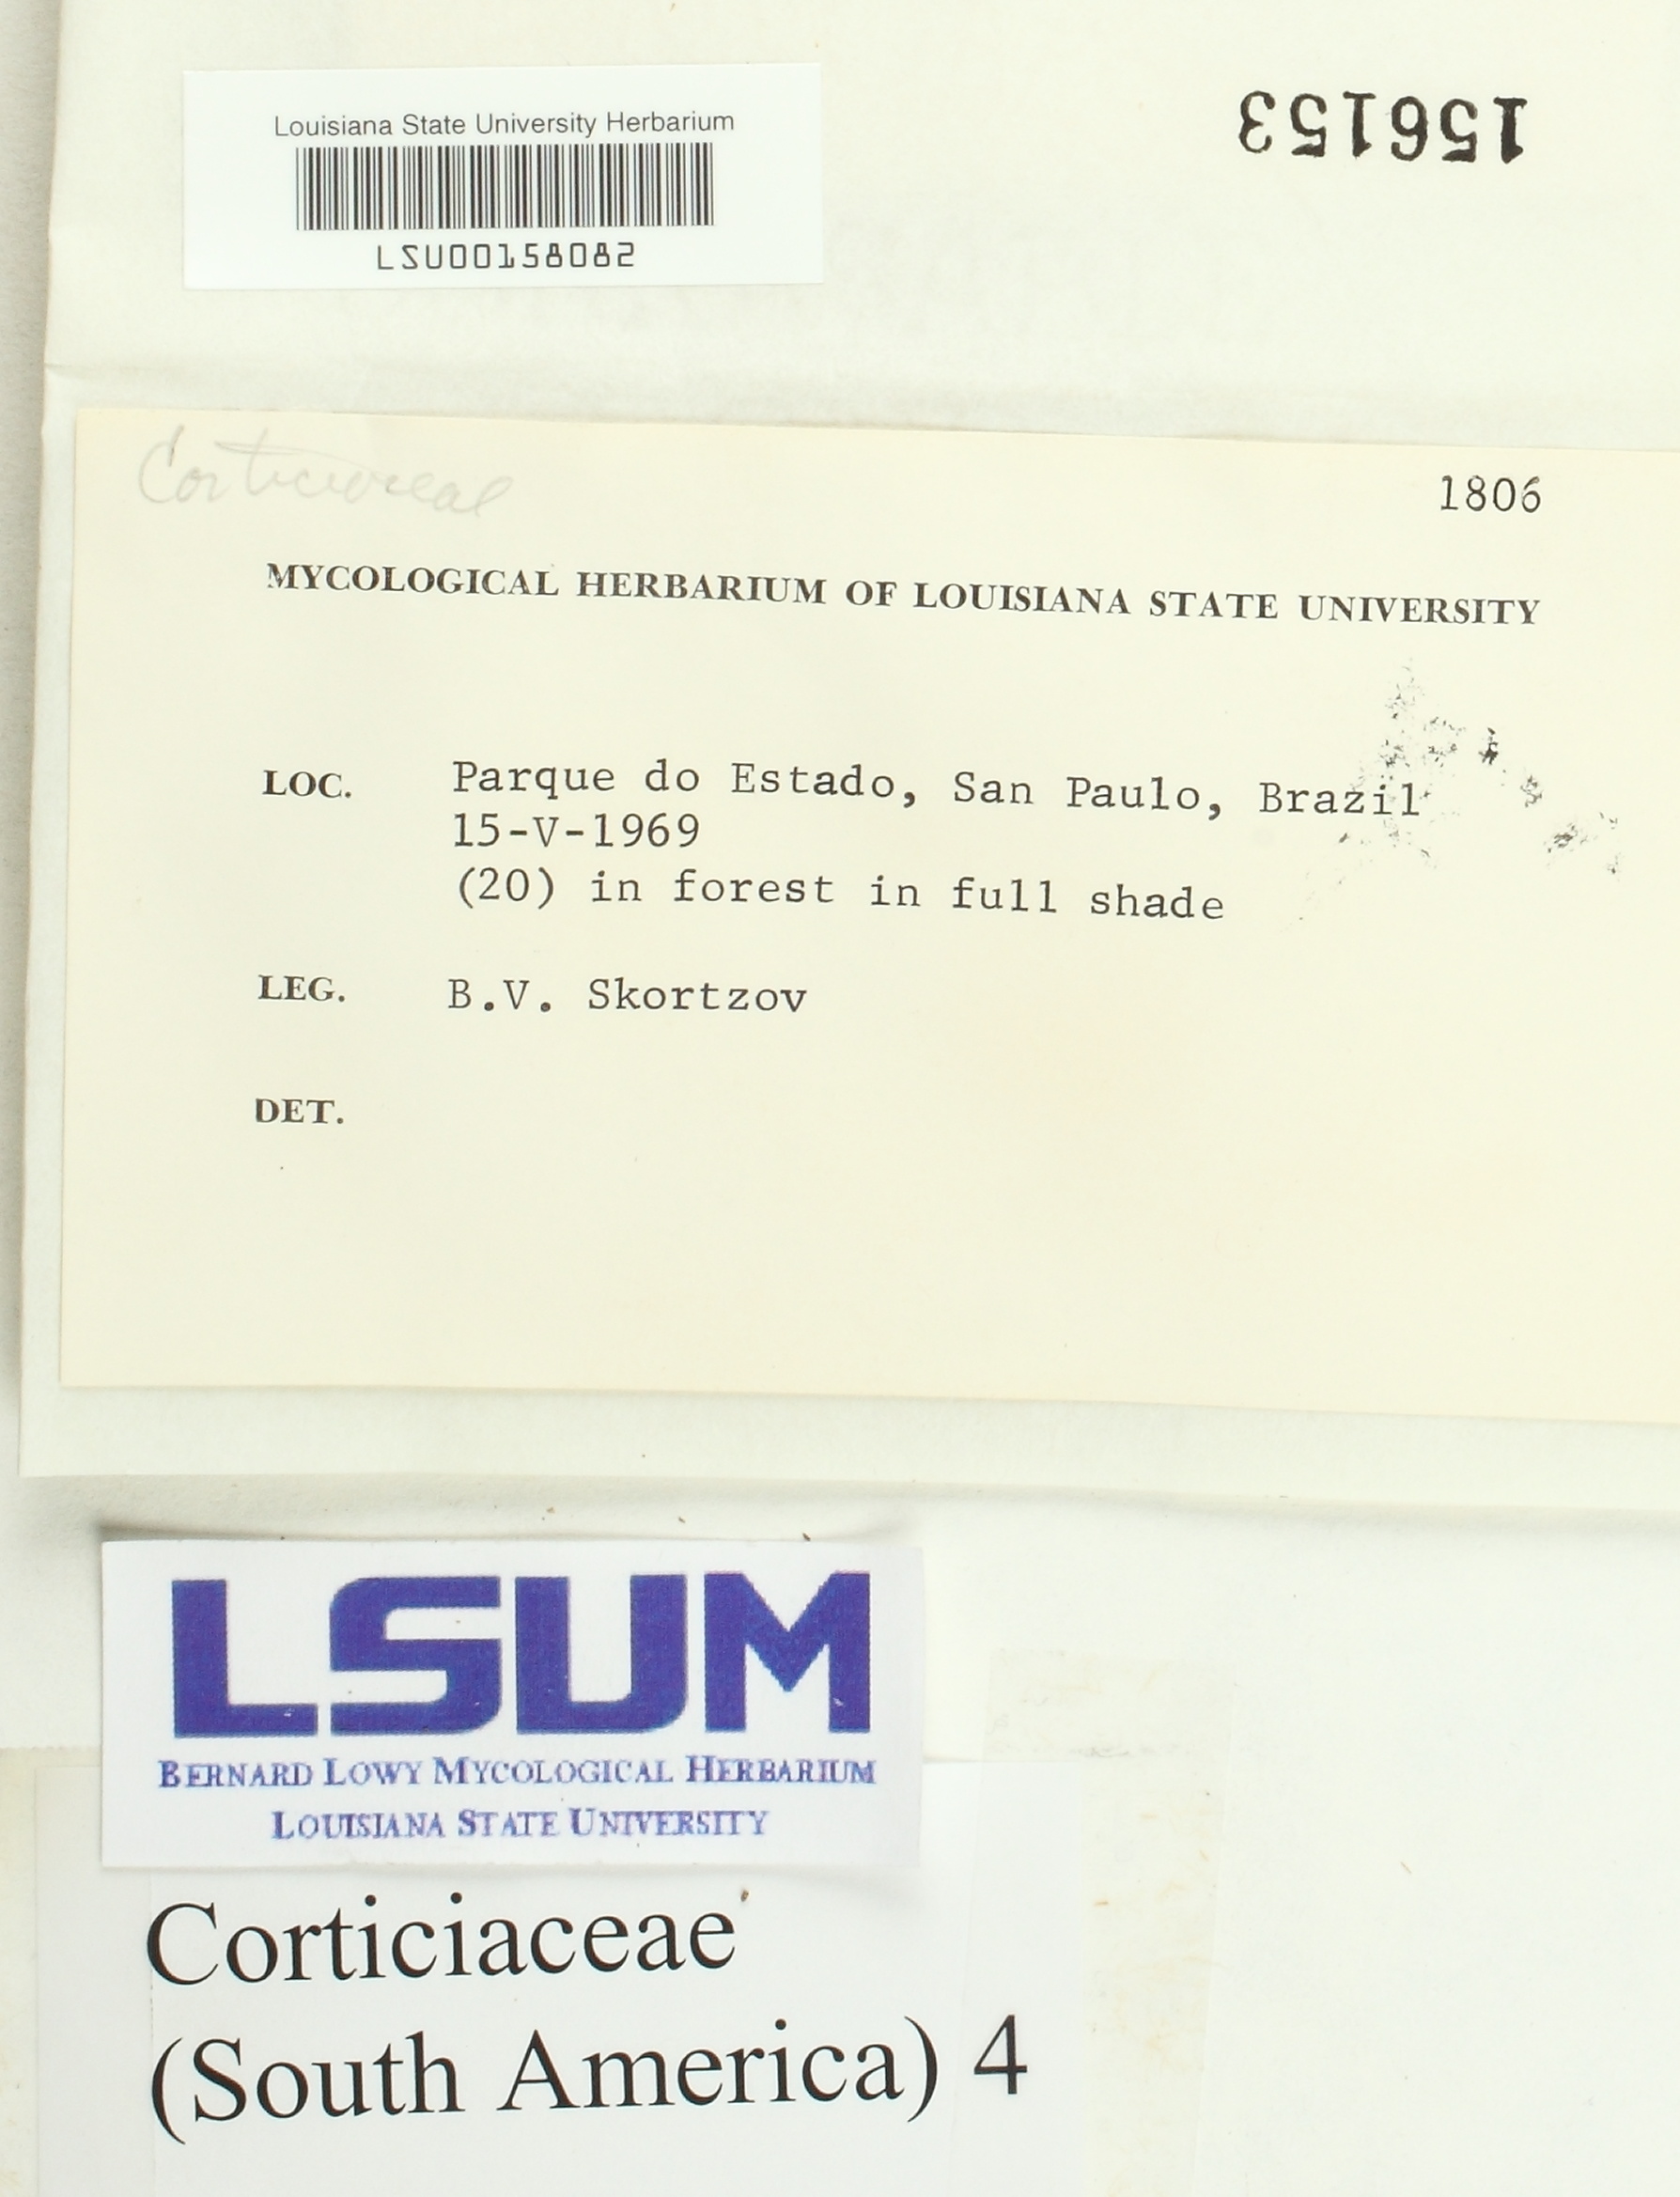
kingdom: Fungi
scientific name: Fungi
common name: Fungi
